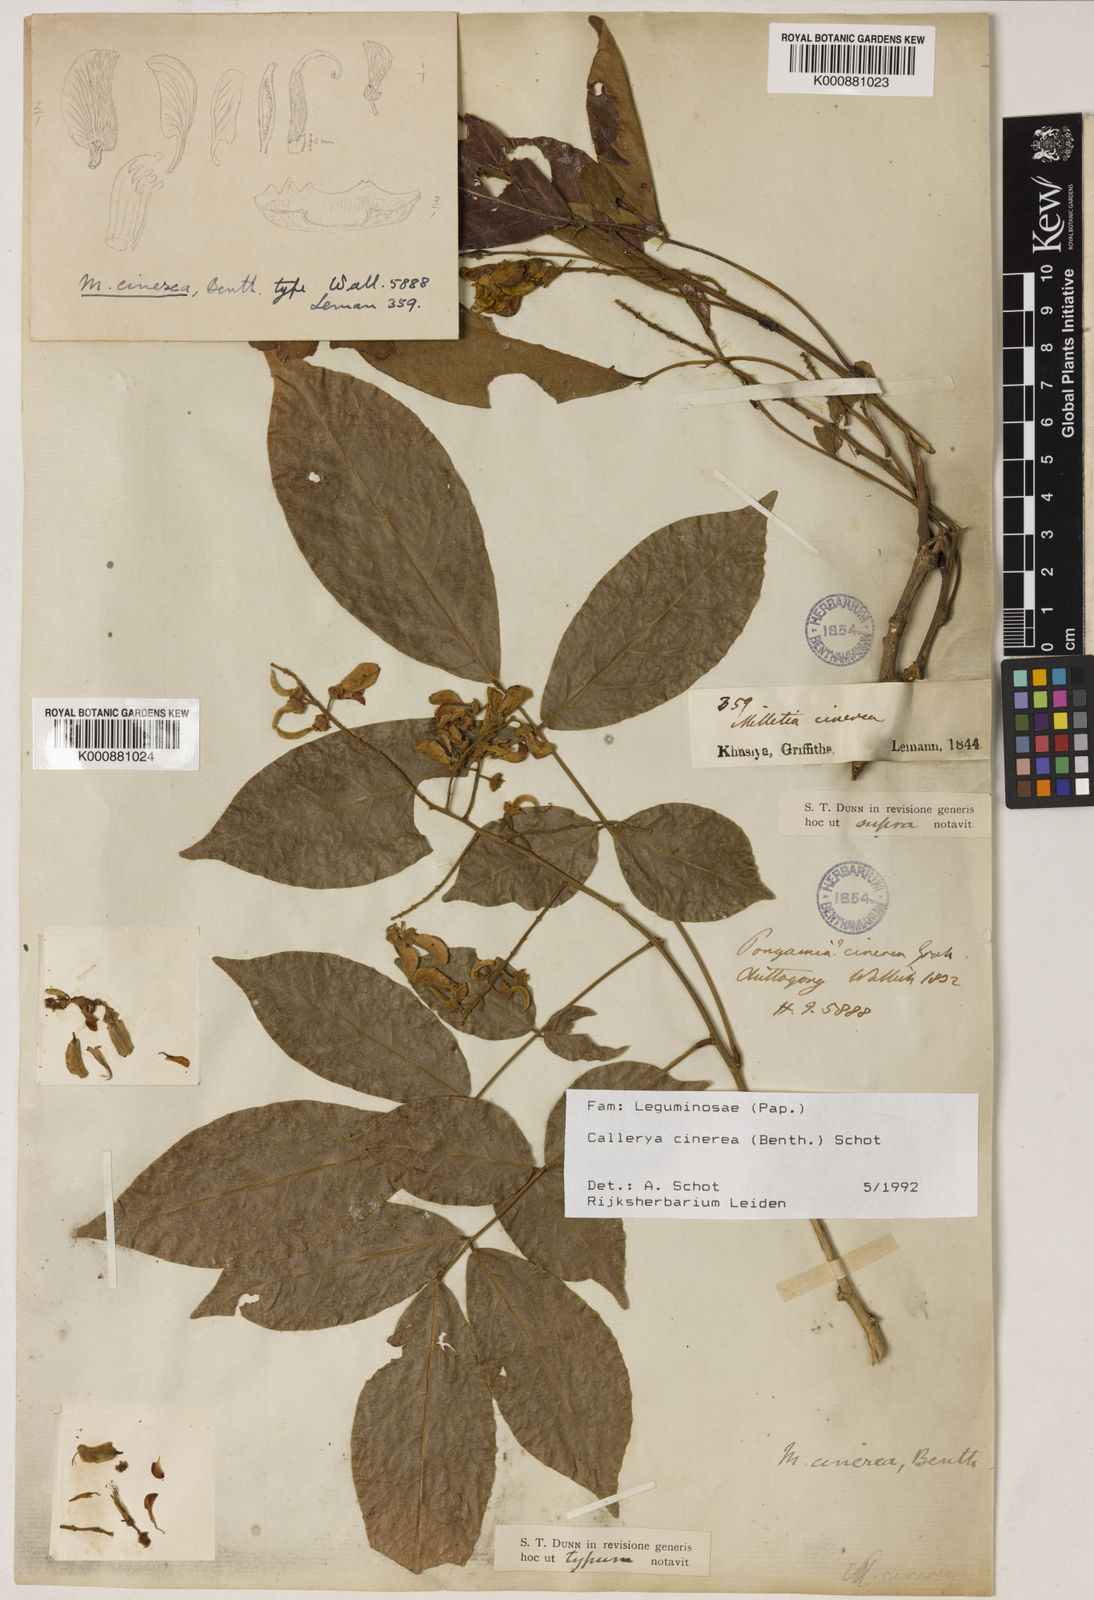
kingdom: Plantae
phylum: Tracheophyta
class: Magnoliopsida
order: Fabales
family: Fabaceae
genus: Callerya
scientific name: Callerya cinerea
